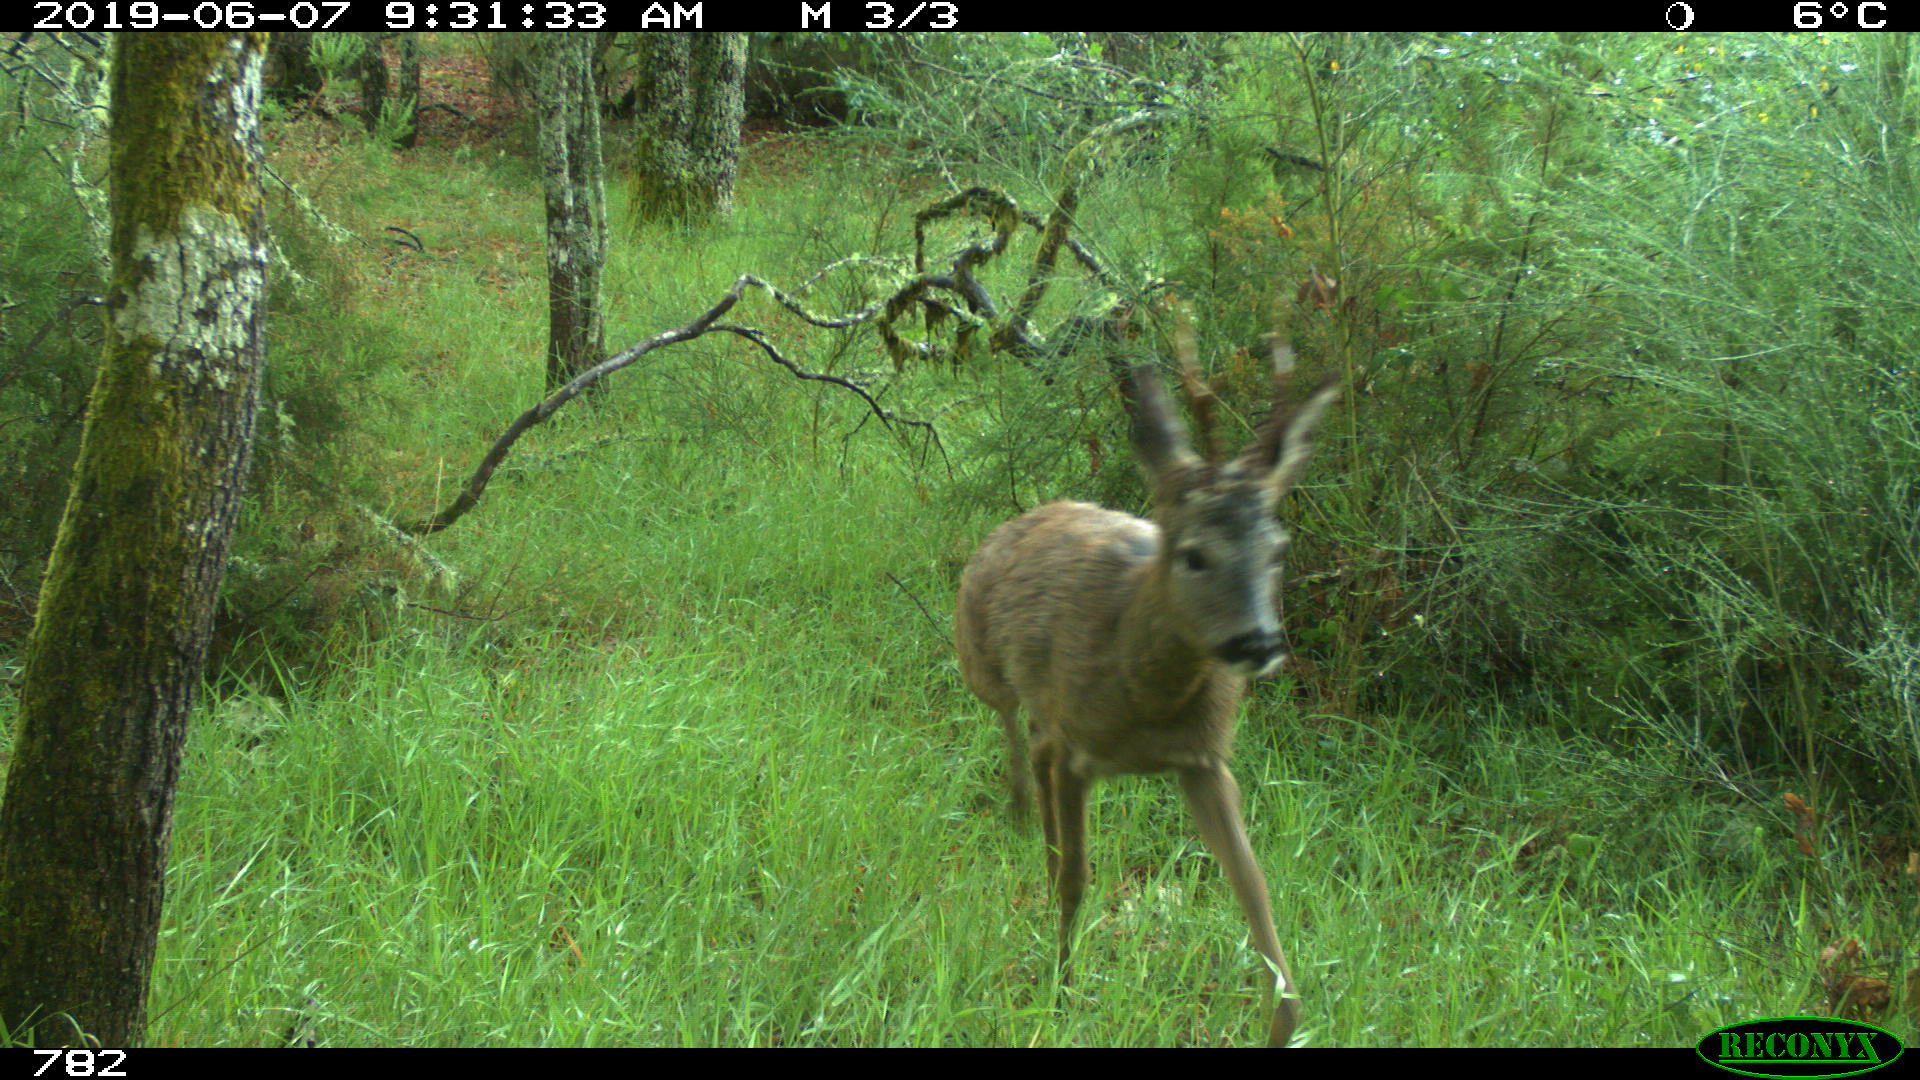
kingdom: Animalia
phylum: Chordata
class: Mammalia
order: Artiodactyla
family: Cervidae
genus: Capreolus
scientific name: Capreolus capreolus
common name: Western roe deer
